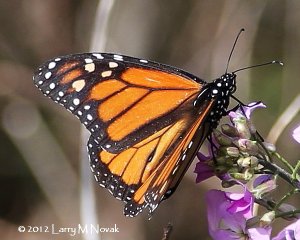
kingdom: Animalia
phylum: Arthropoda
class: Insecta
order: Lepidoptera
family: Nymphalidae
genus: Danaus
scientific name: Danaus plexippus
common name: Monarch
